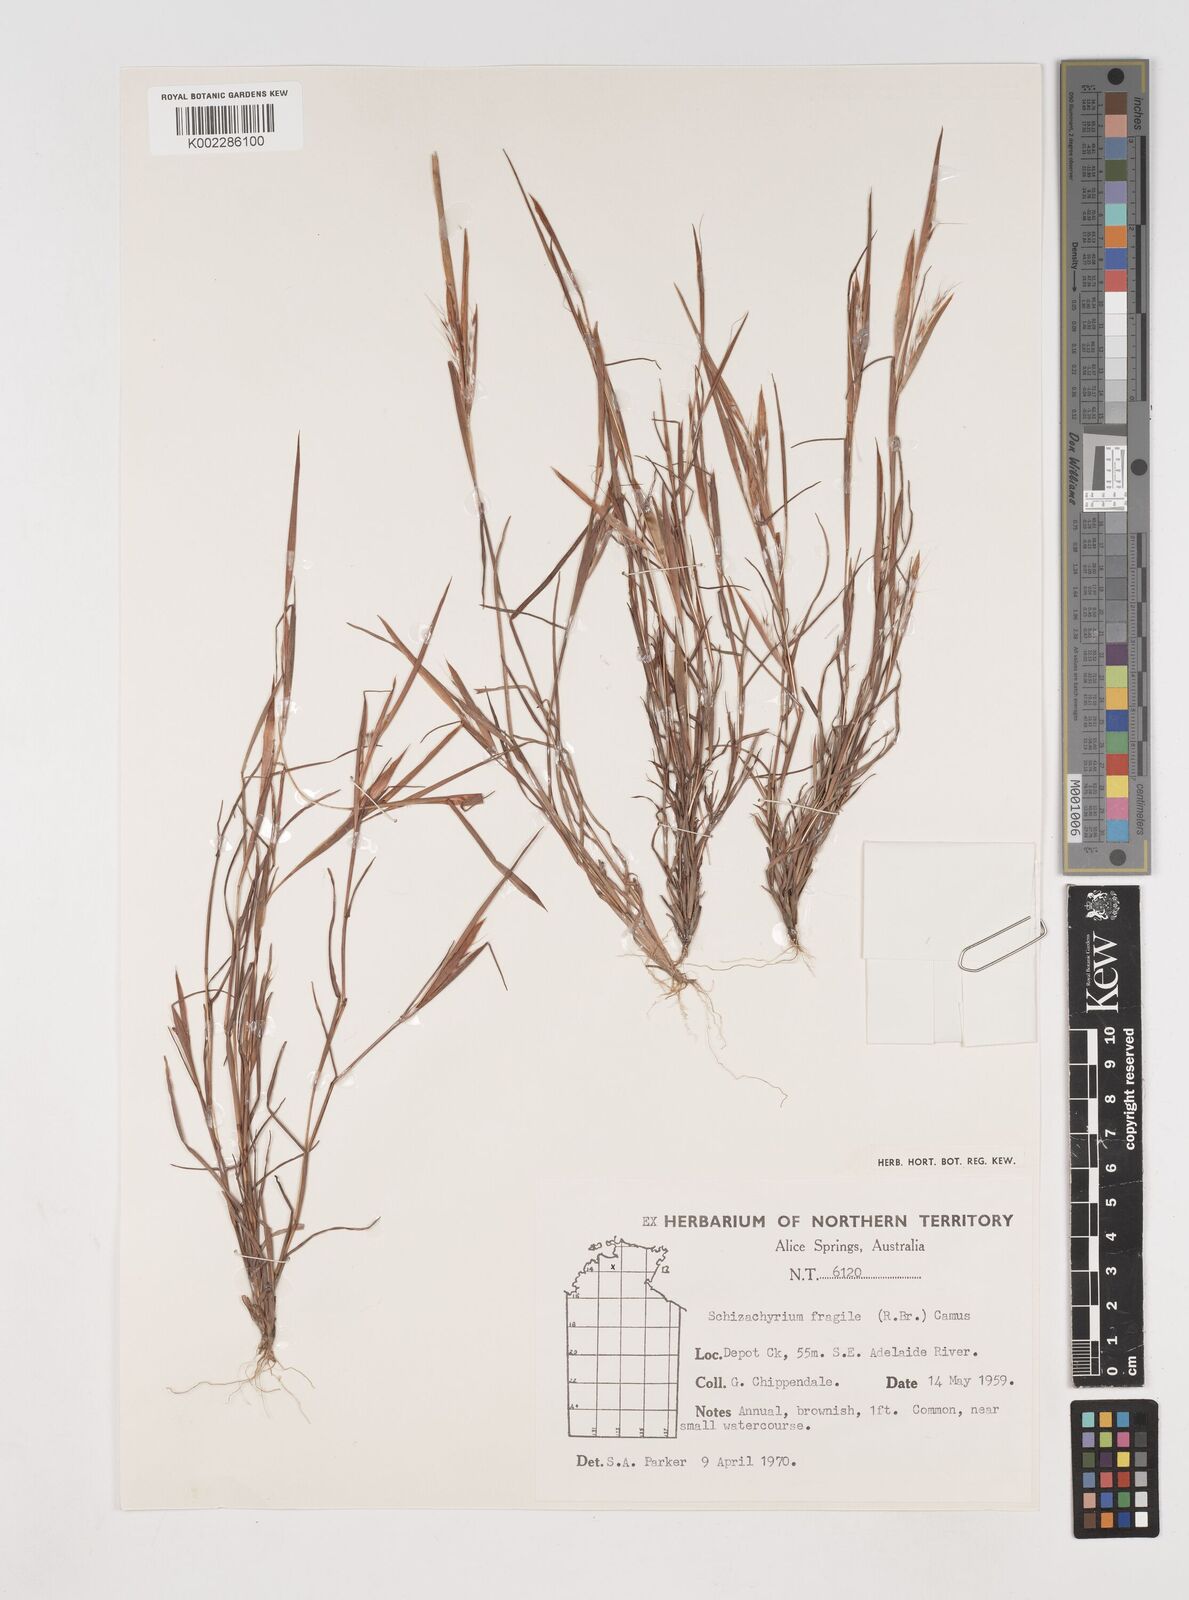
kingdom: Plantae
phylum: Tracheophyta
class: Liliopsida
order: Poales
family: Poaceae
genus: Schizachyrium
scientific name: Schizachyrium fragile
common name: Red spathe grass
